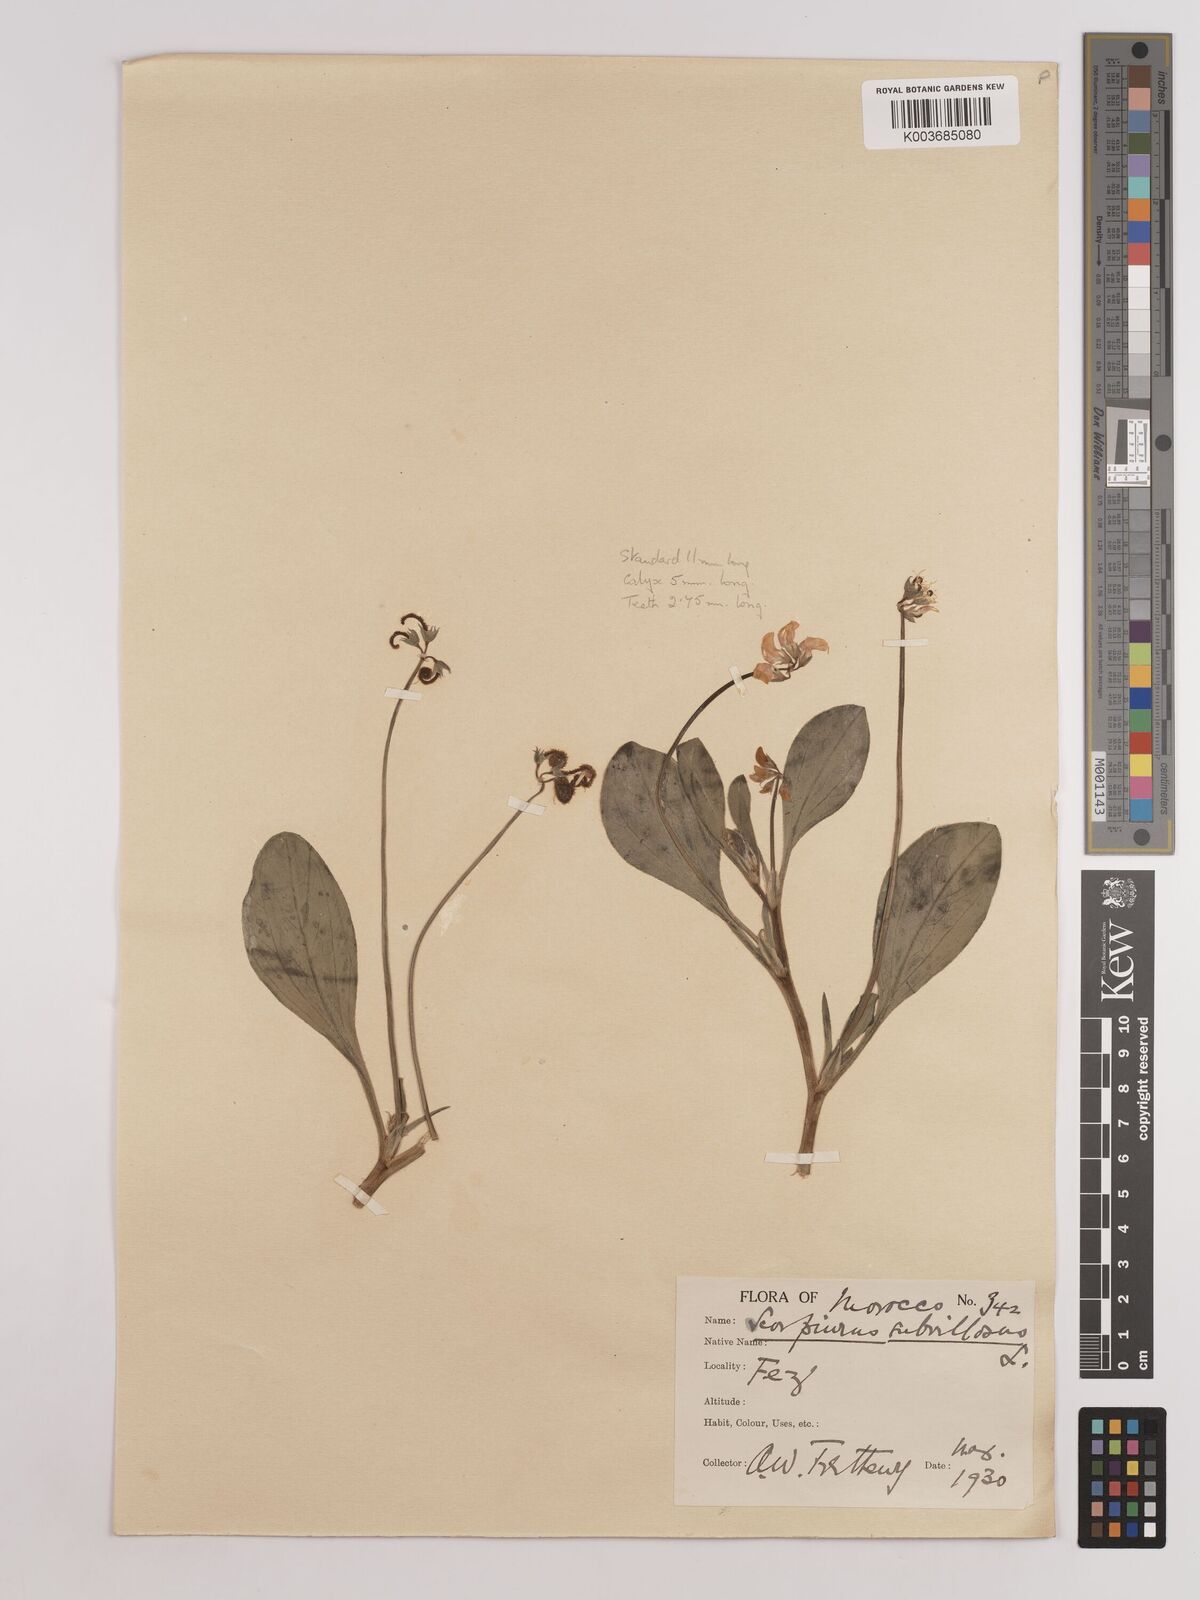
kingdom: Plantae
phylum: Tracheophyta
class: Magnoliopsida
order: Fabales
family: Fabaceae
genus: Scorpiurus
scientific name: Scorpiurus muricatus
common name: Caterpillar-plant
